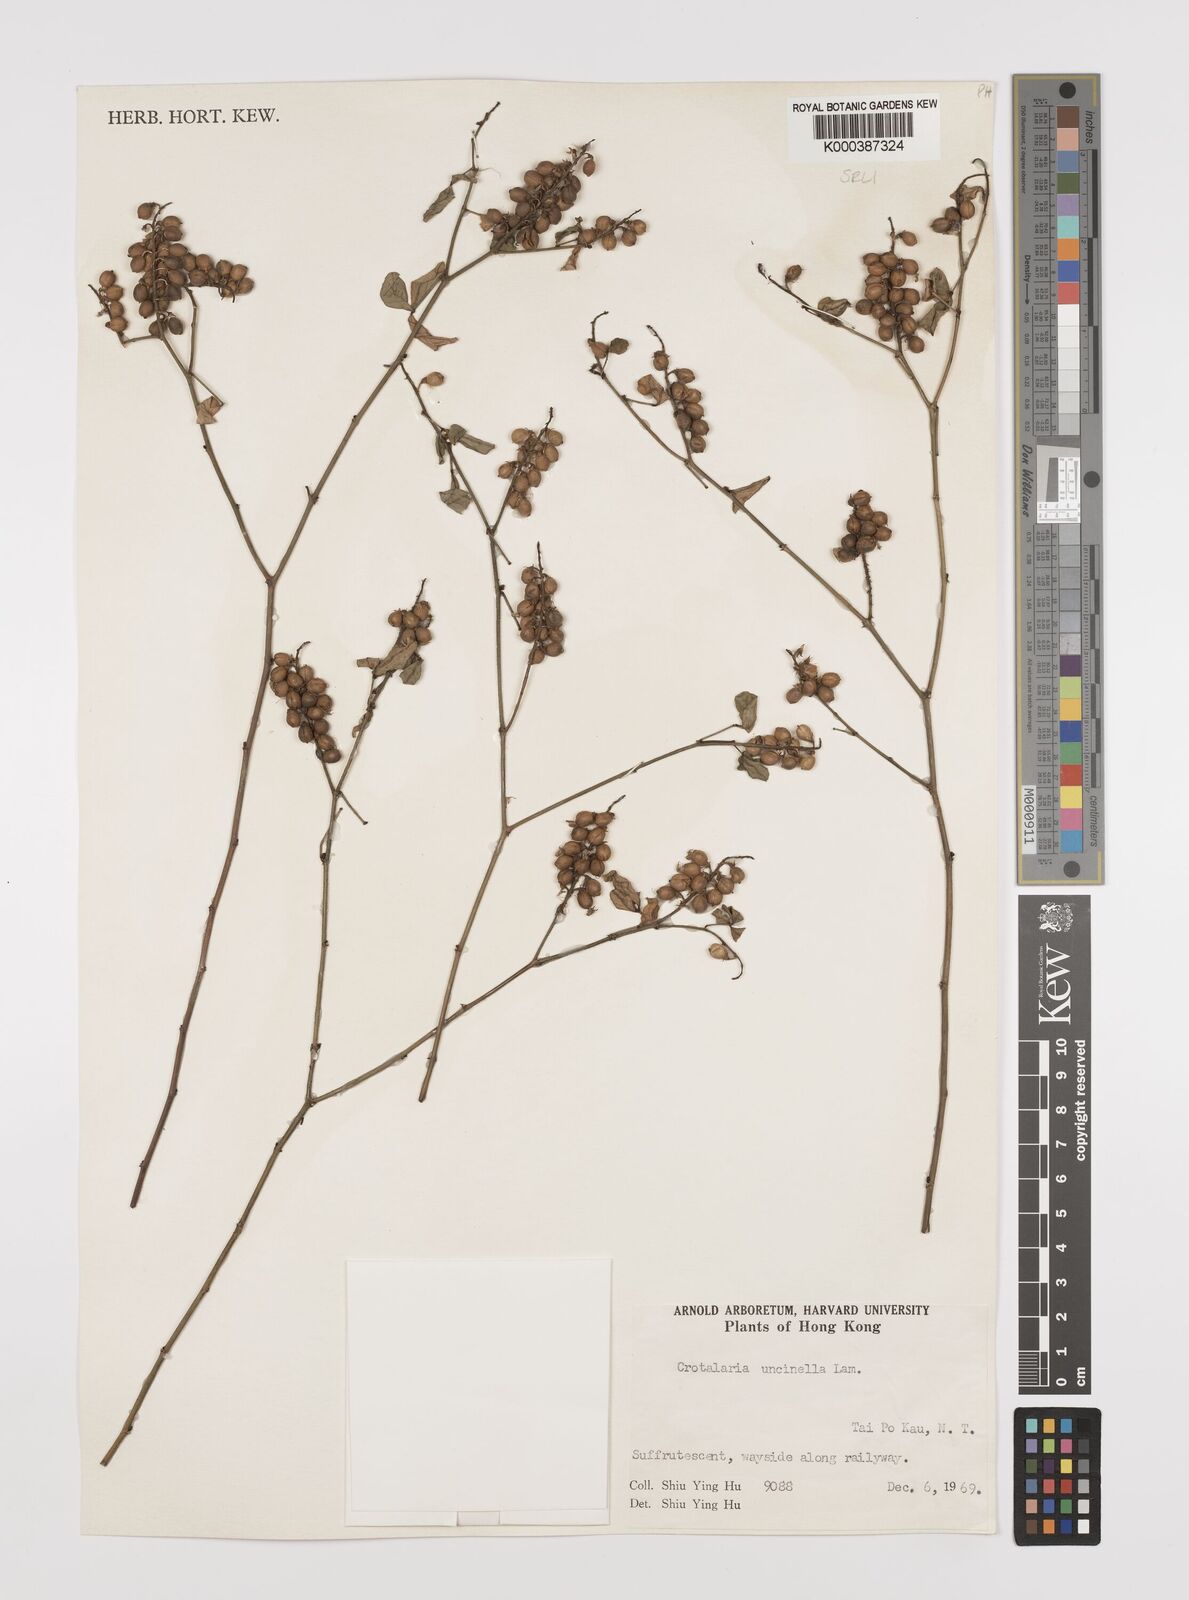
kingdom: Plantae
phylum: Tracheophyta
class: Magnoliopsida
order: Fabales
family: Fabaceae
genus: Crotalaria
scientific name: Crotalaria uncinella
